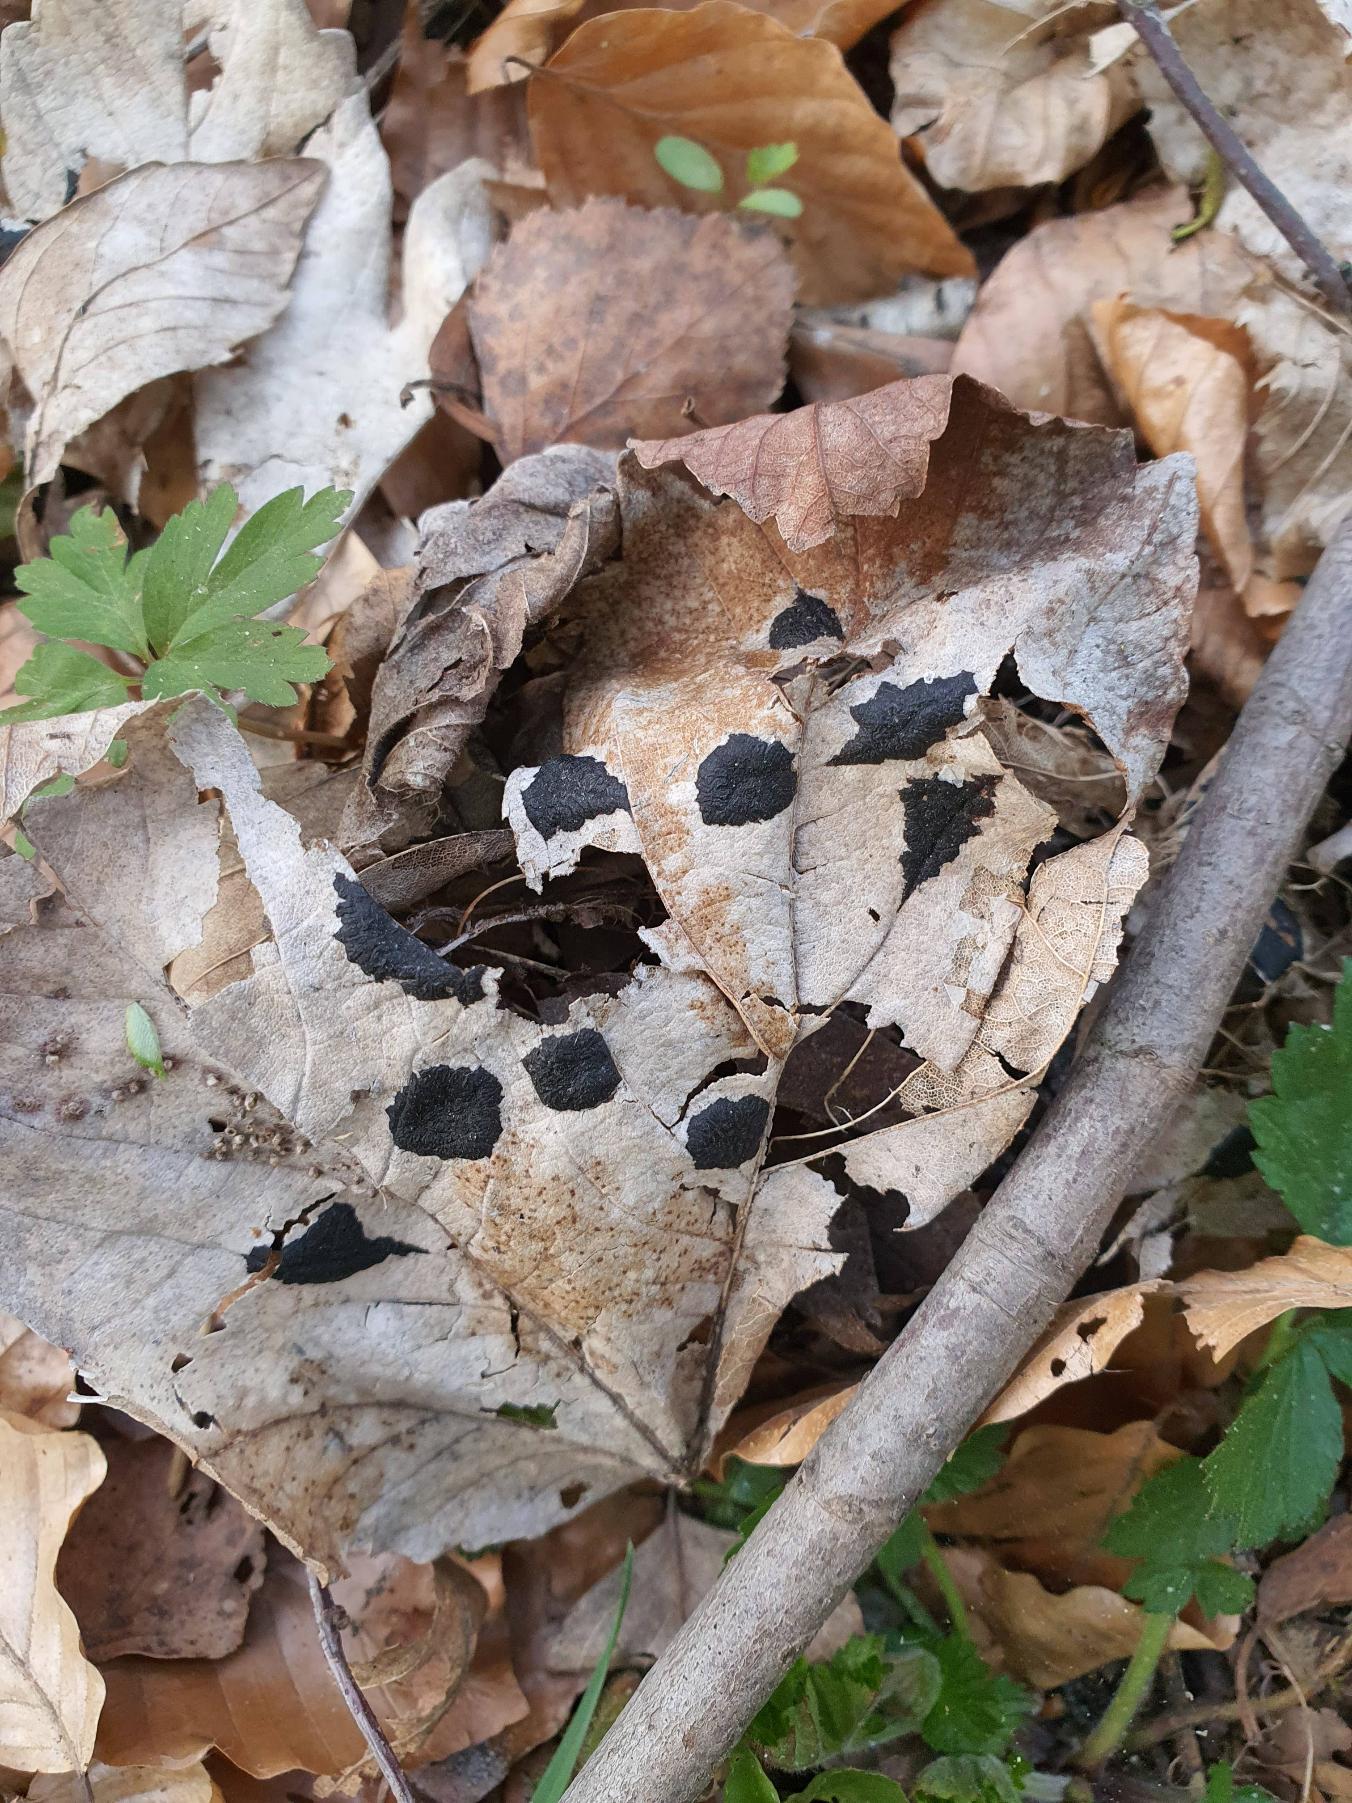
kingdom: Fungi
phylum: Ascomycota
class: Leotiomycetes
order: Rhytismatales
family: Rhytismataceae
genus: Rhytisma
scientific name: Rhytisma acerinum
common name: Ahorn-rynkeplet
